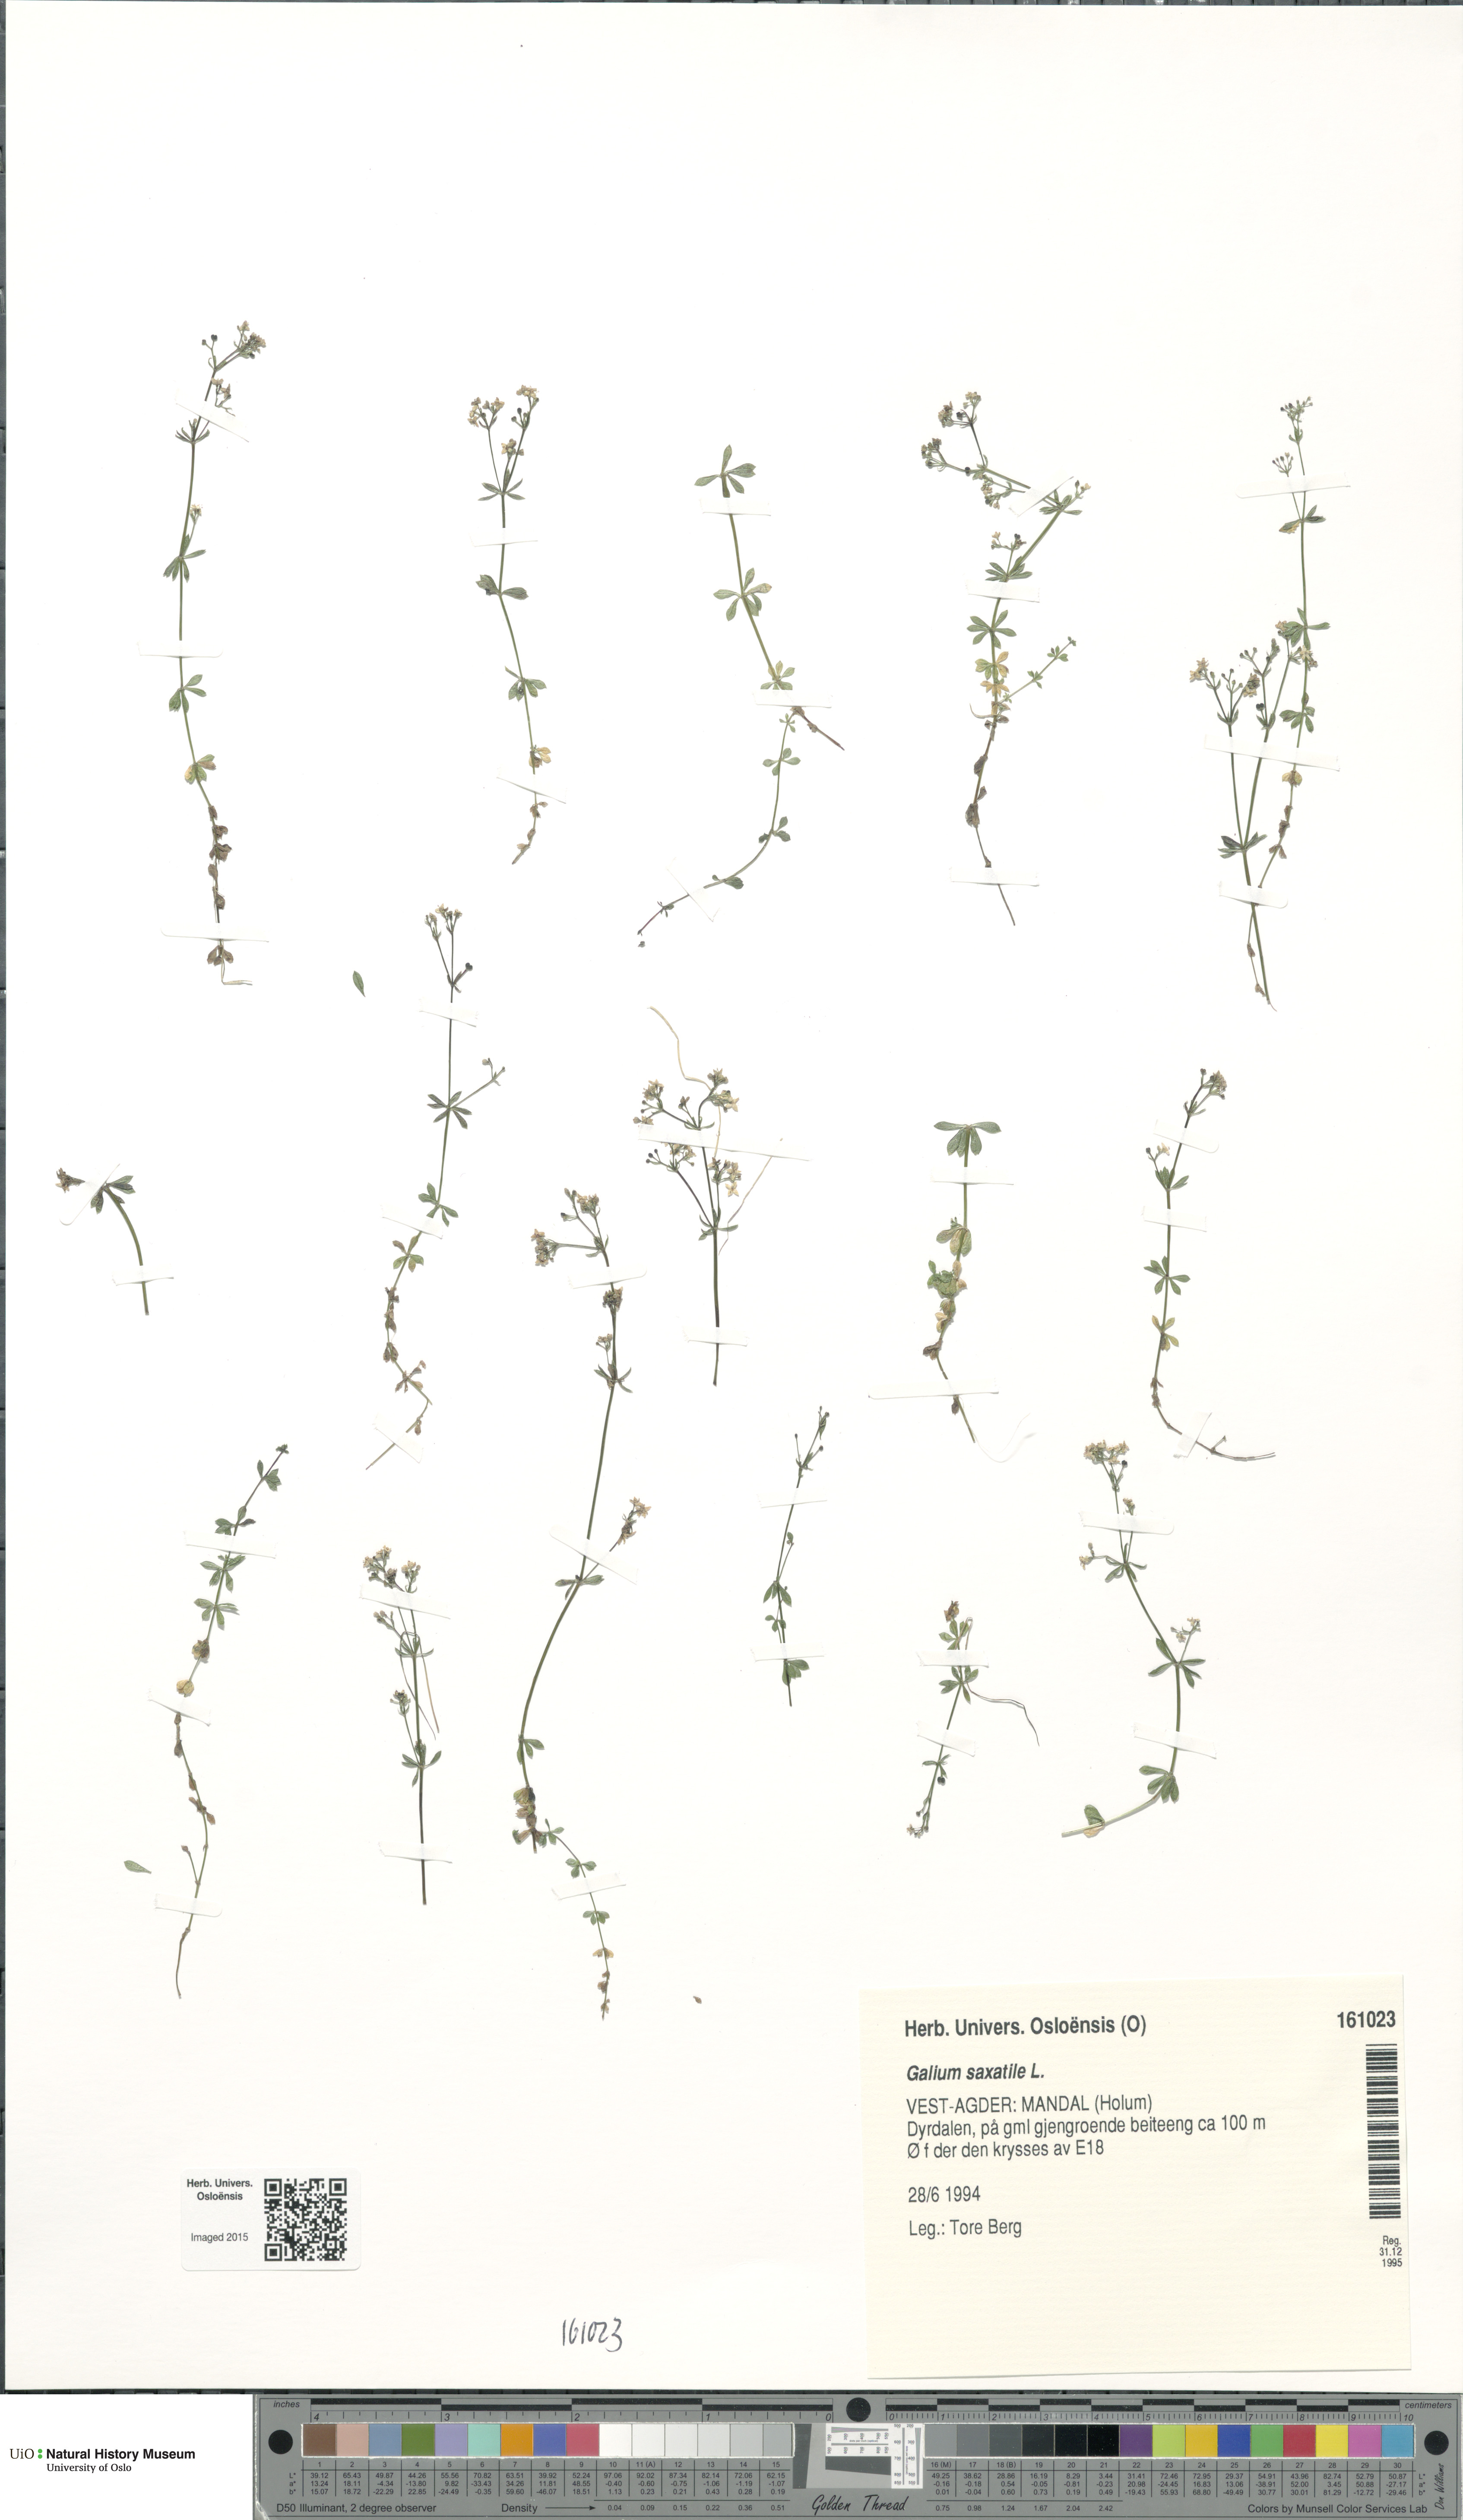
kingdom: Plantae
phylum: Tracheophyta
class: Magnoliopsida
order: Gentianales
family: Rubiaceae
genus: Galium
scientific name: Galium saxatile
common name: Heath bedstraw
